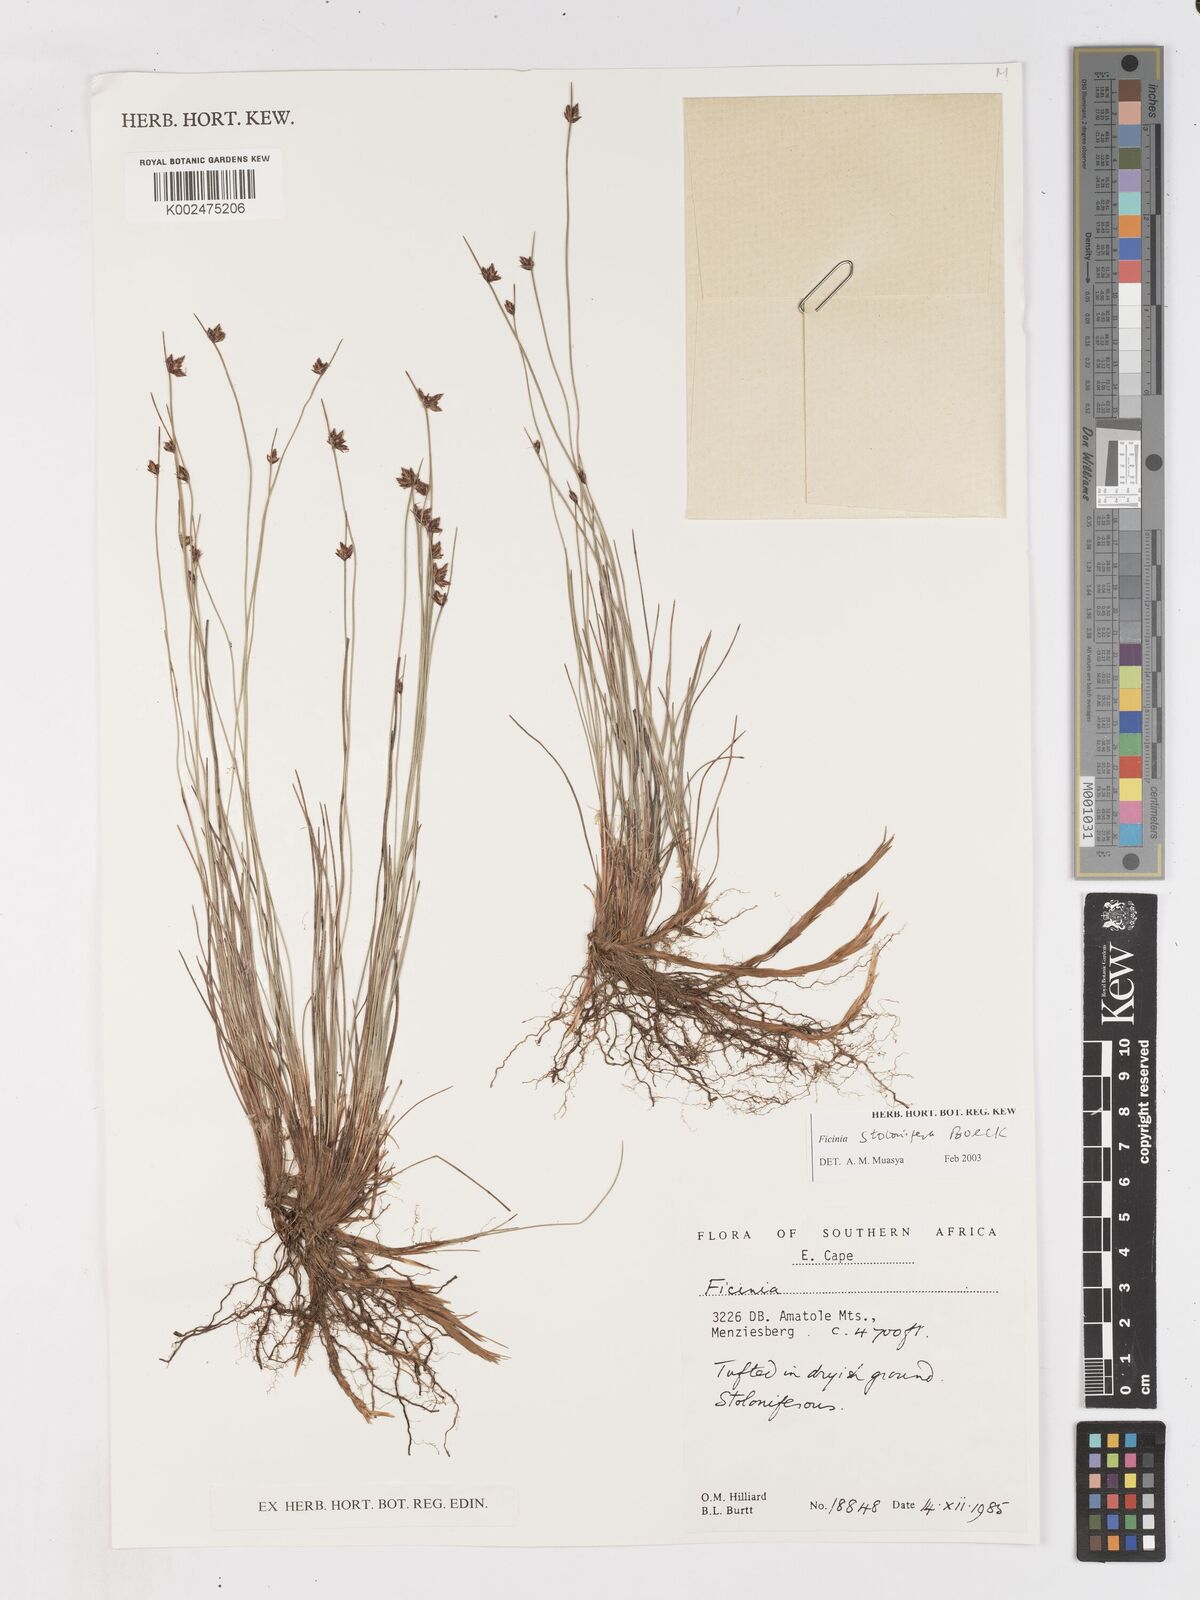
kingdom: Plantae
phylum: Tracheophyta
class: Liliopsida
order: Poales
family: Cyperaceae
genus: Ficinia
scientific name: Ficinia stolonifera
